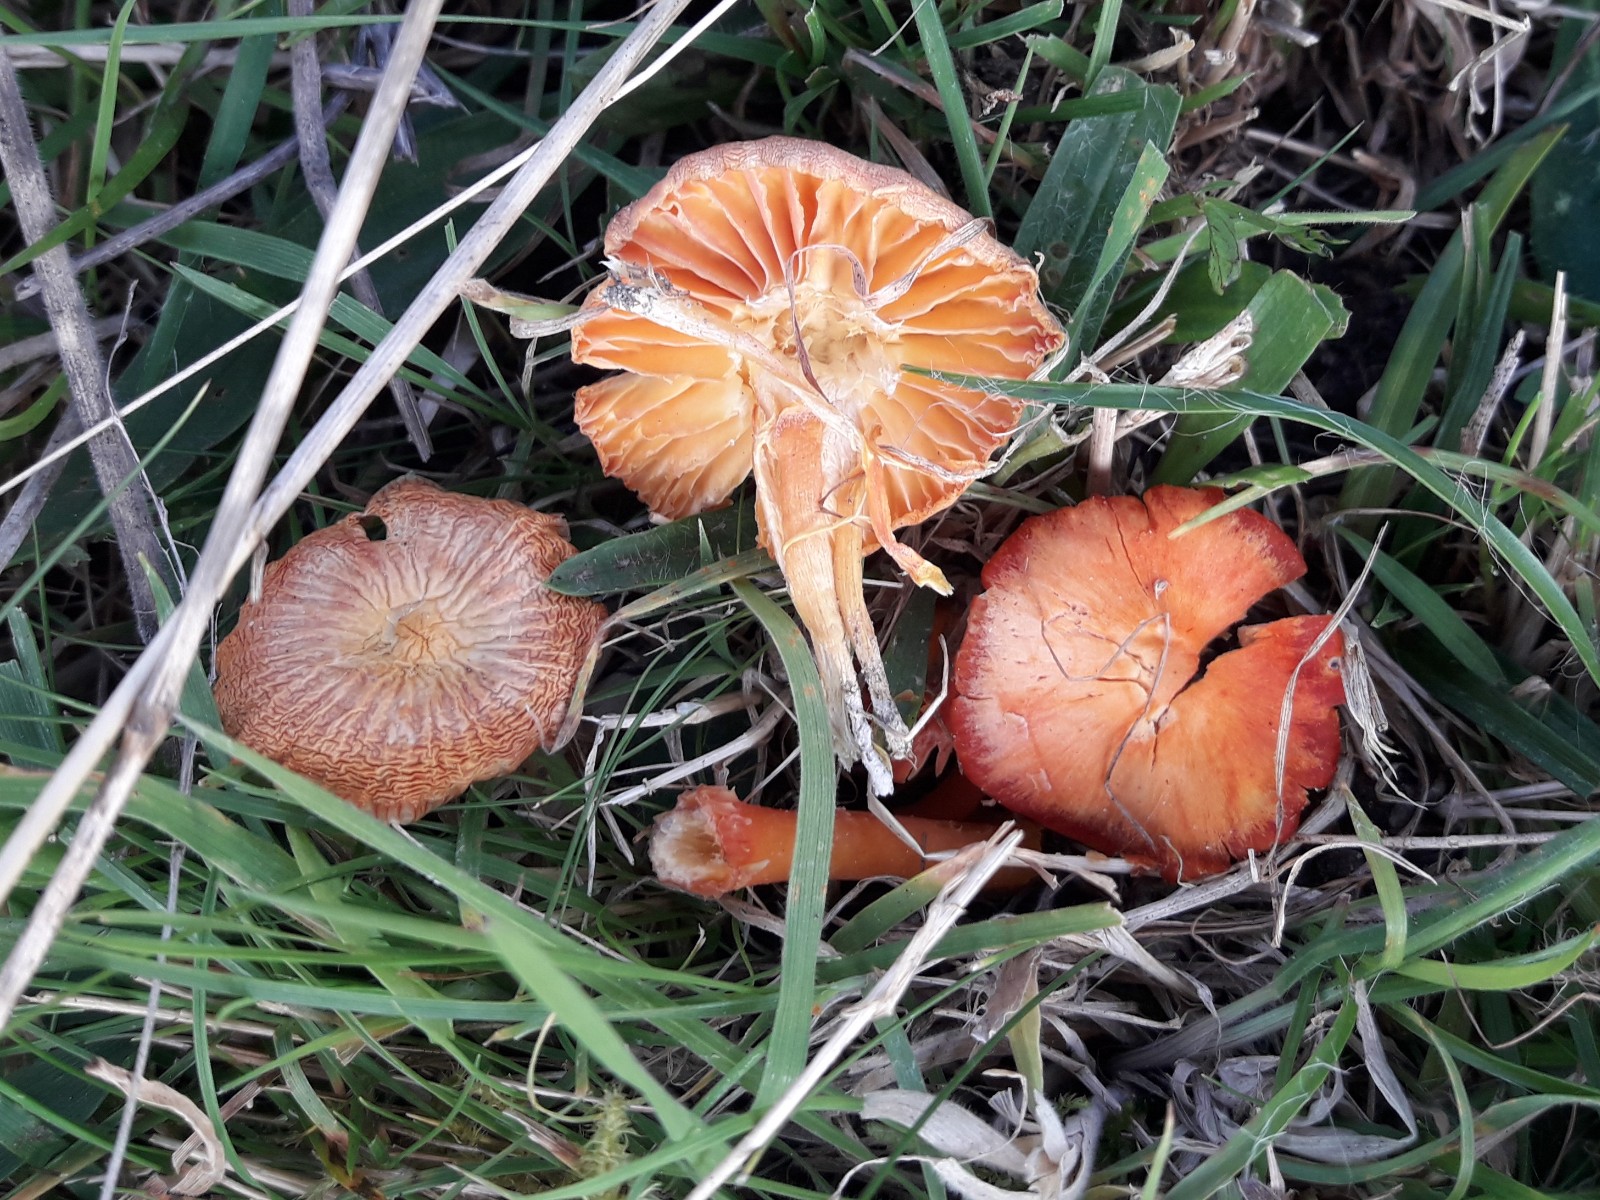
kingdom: Fungi
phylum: Basidiomycota
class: Agaricomycetes
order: Agaricales
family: Hygrophoraceae
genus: Hygrocybe
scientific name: Hygrocybe reidii
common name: honning-vokshat
